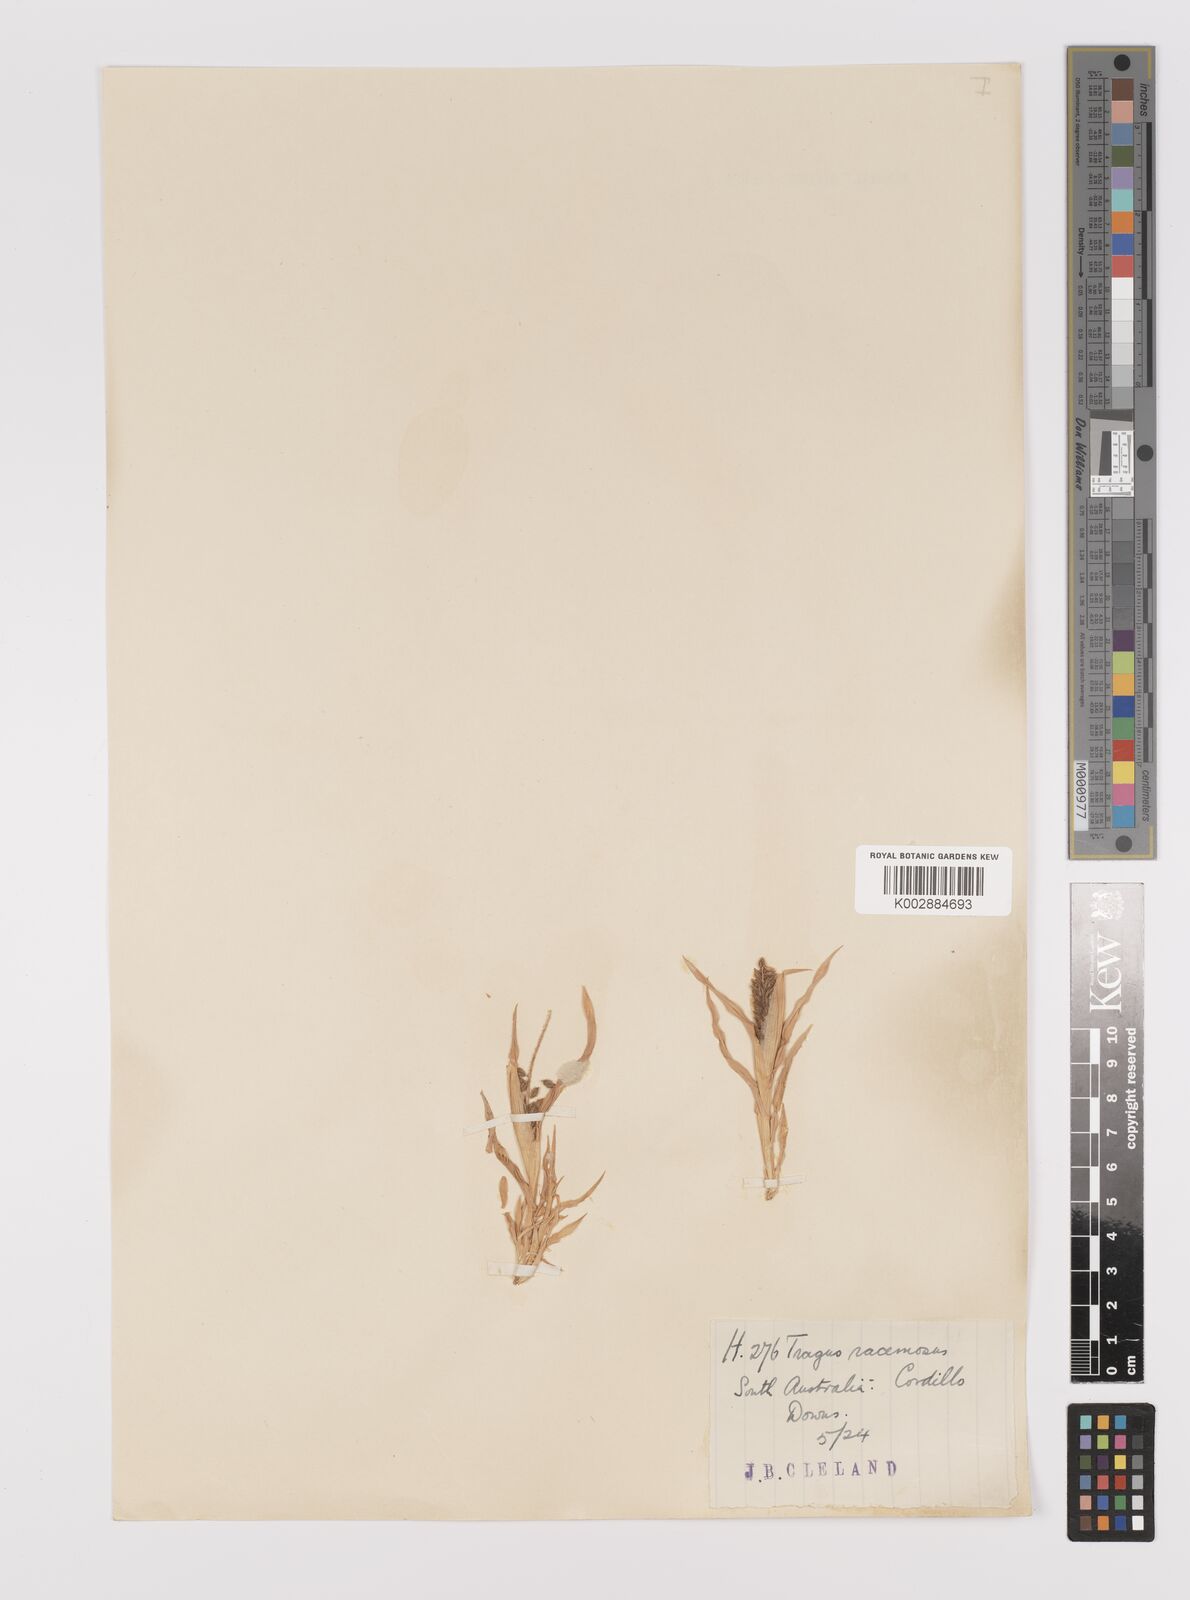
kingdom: Plantae
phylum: Tracheophyta
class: Liliopsida
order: Poales
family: Poaceae
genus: Tragus
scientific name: Tragus australianus
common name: Australian bur-grass
